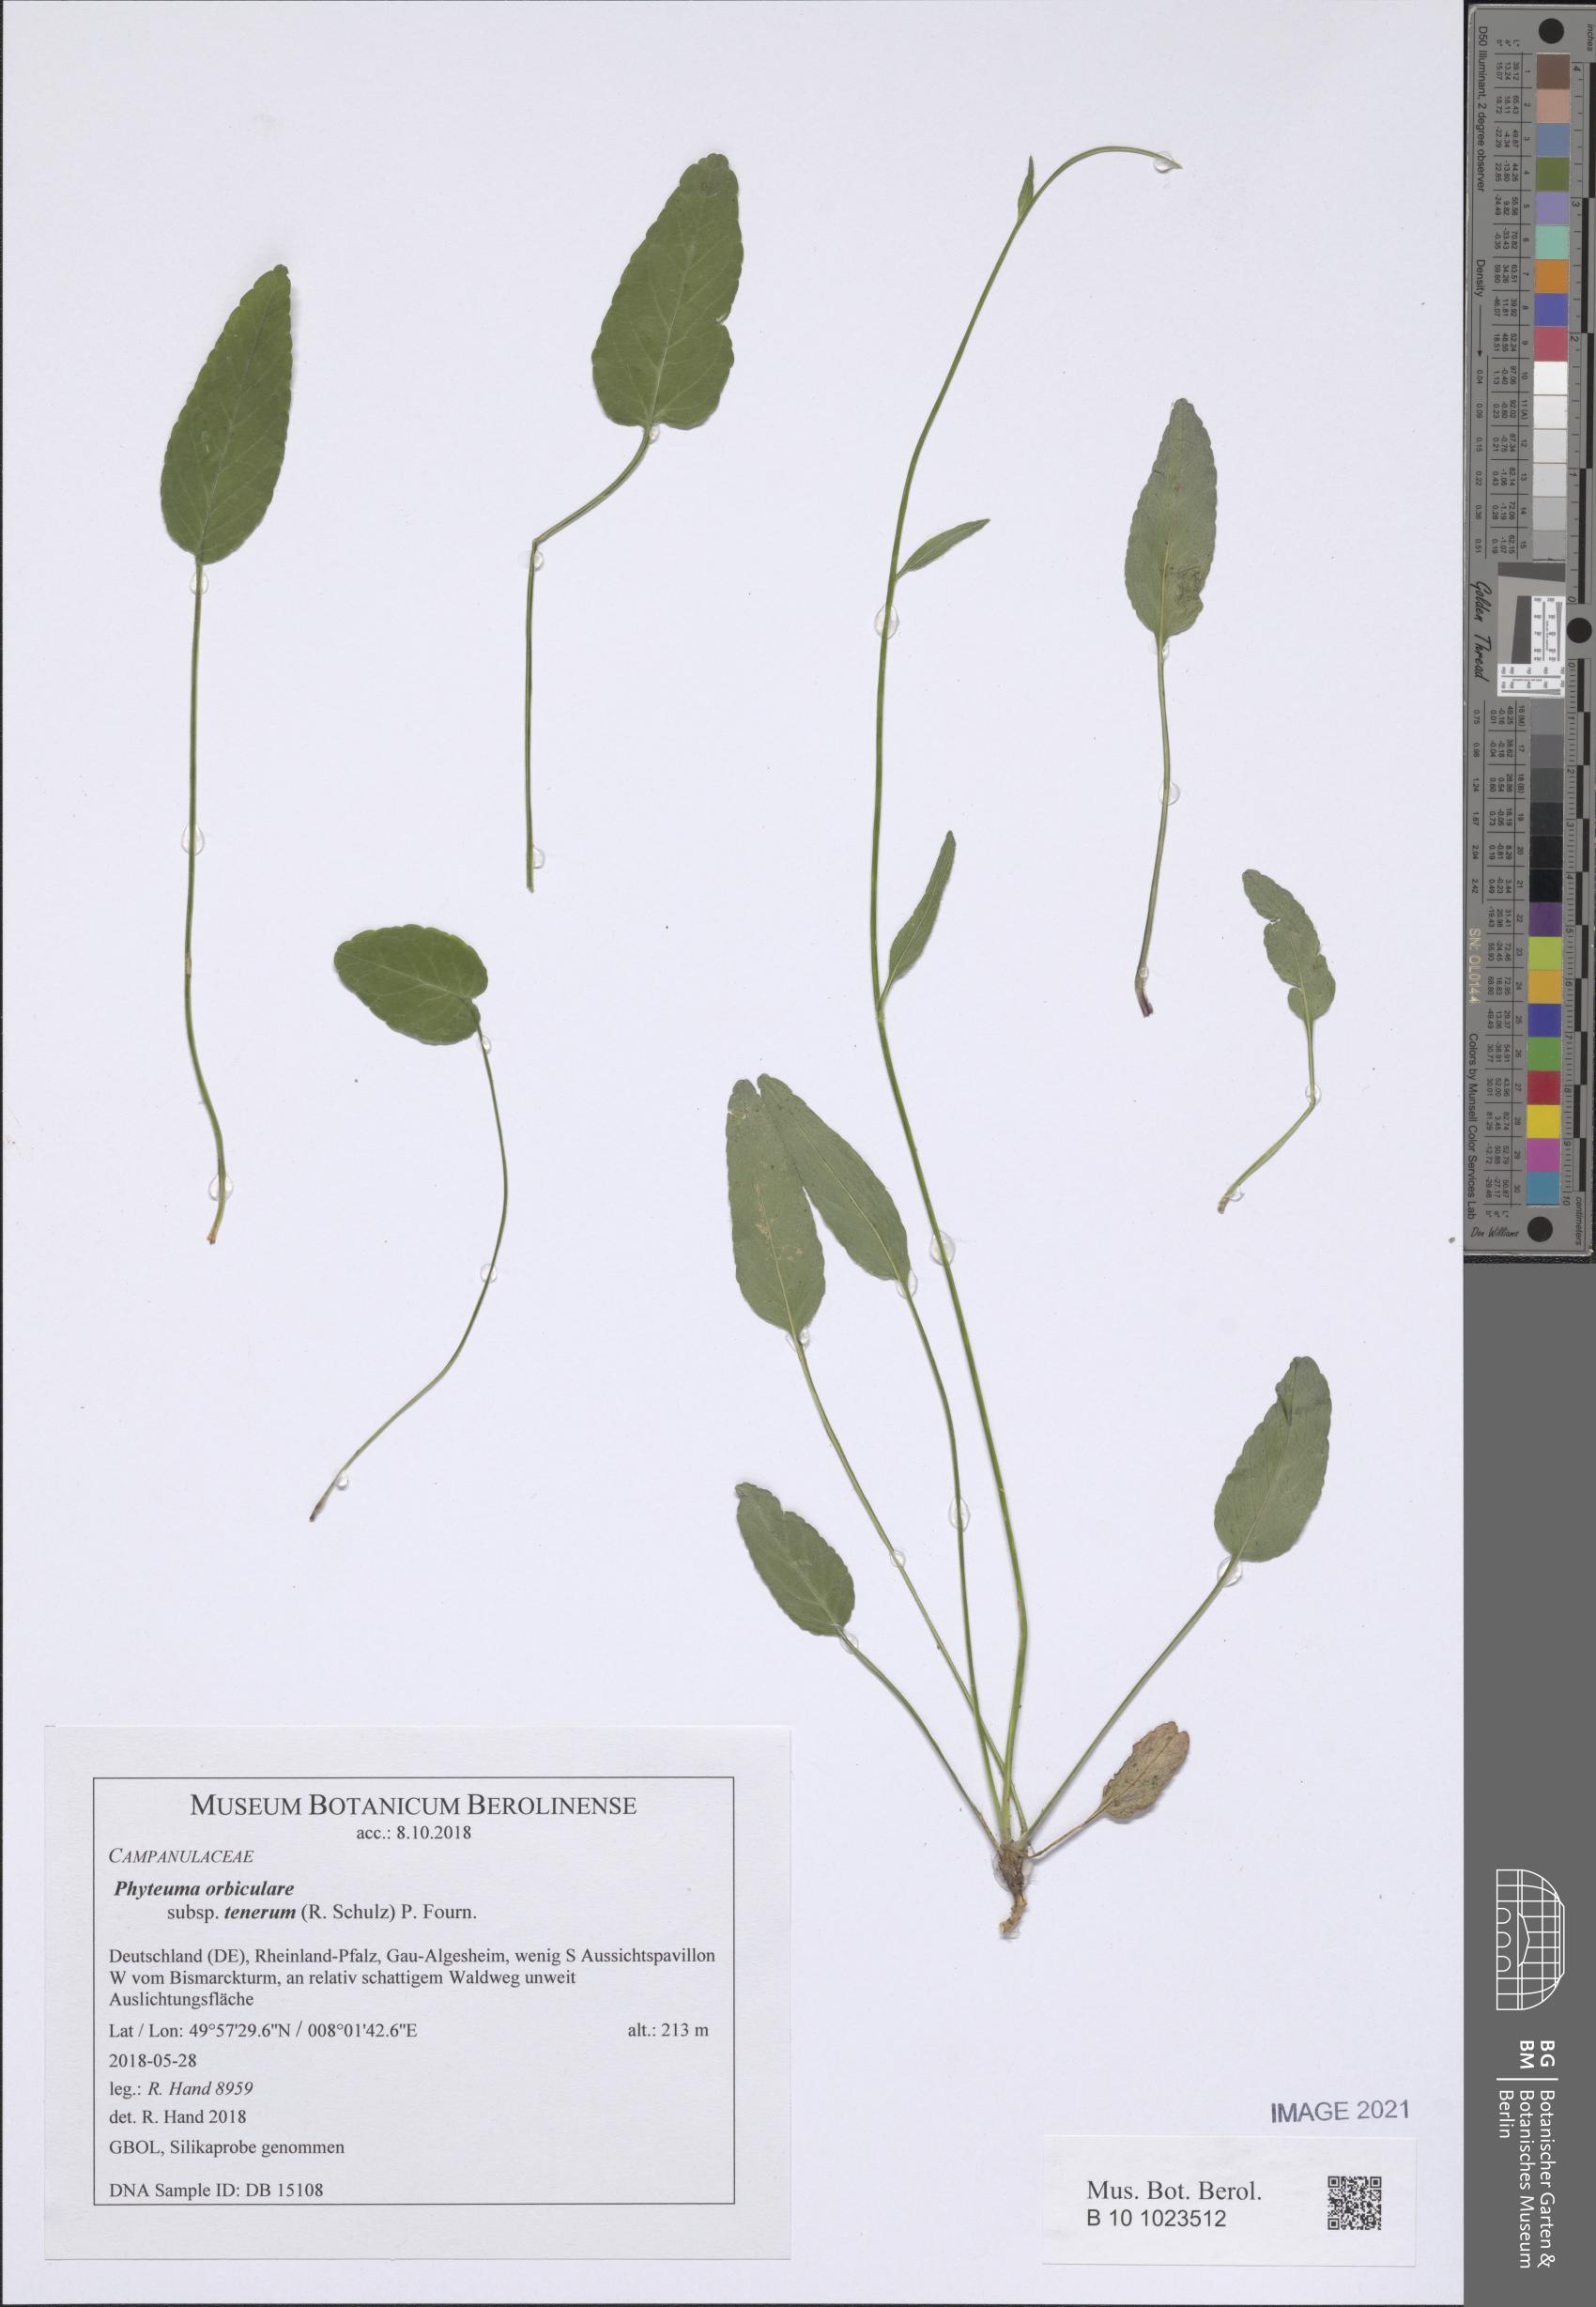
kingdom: Plantae
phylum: Tracheophyta
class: Magnoliopsida
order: Asterales
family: Campanulaceae
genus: Phyteuma
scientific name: Phyteuma orbiculare
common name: Round-headed rampion
